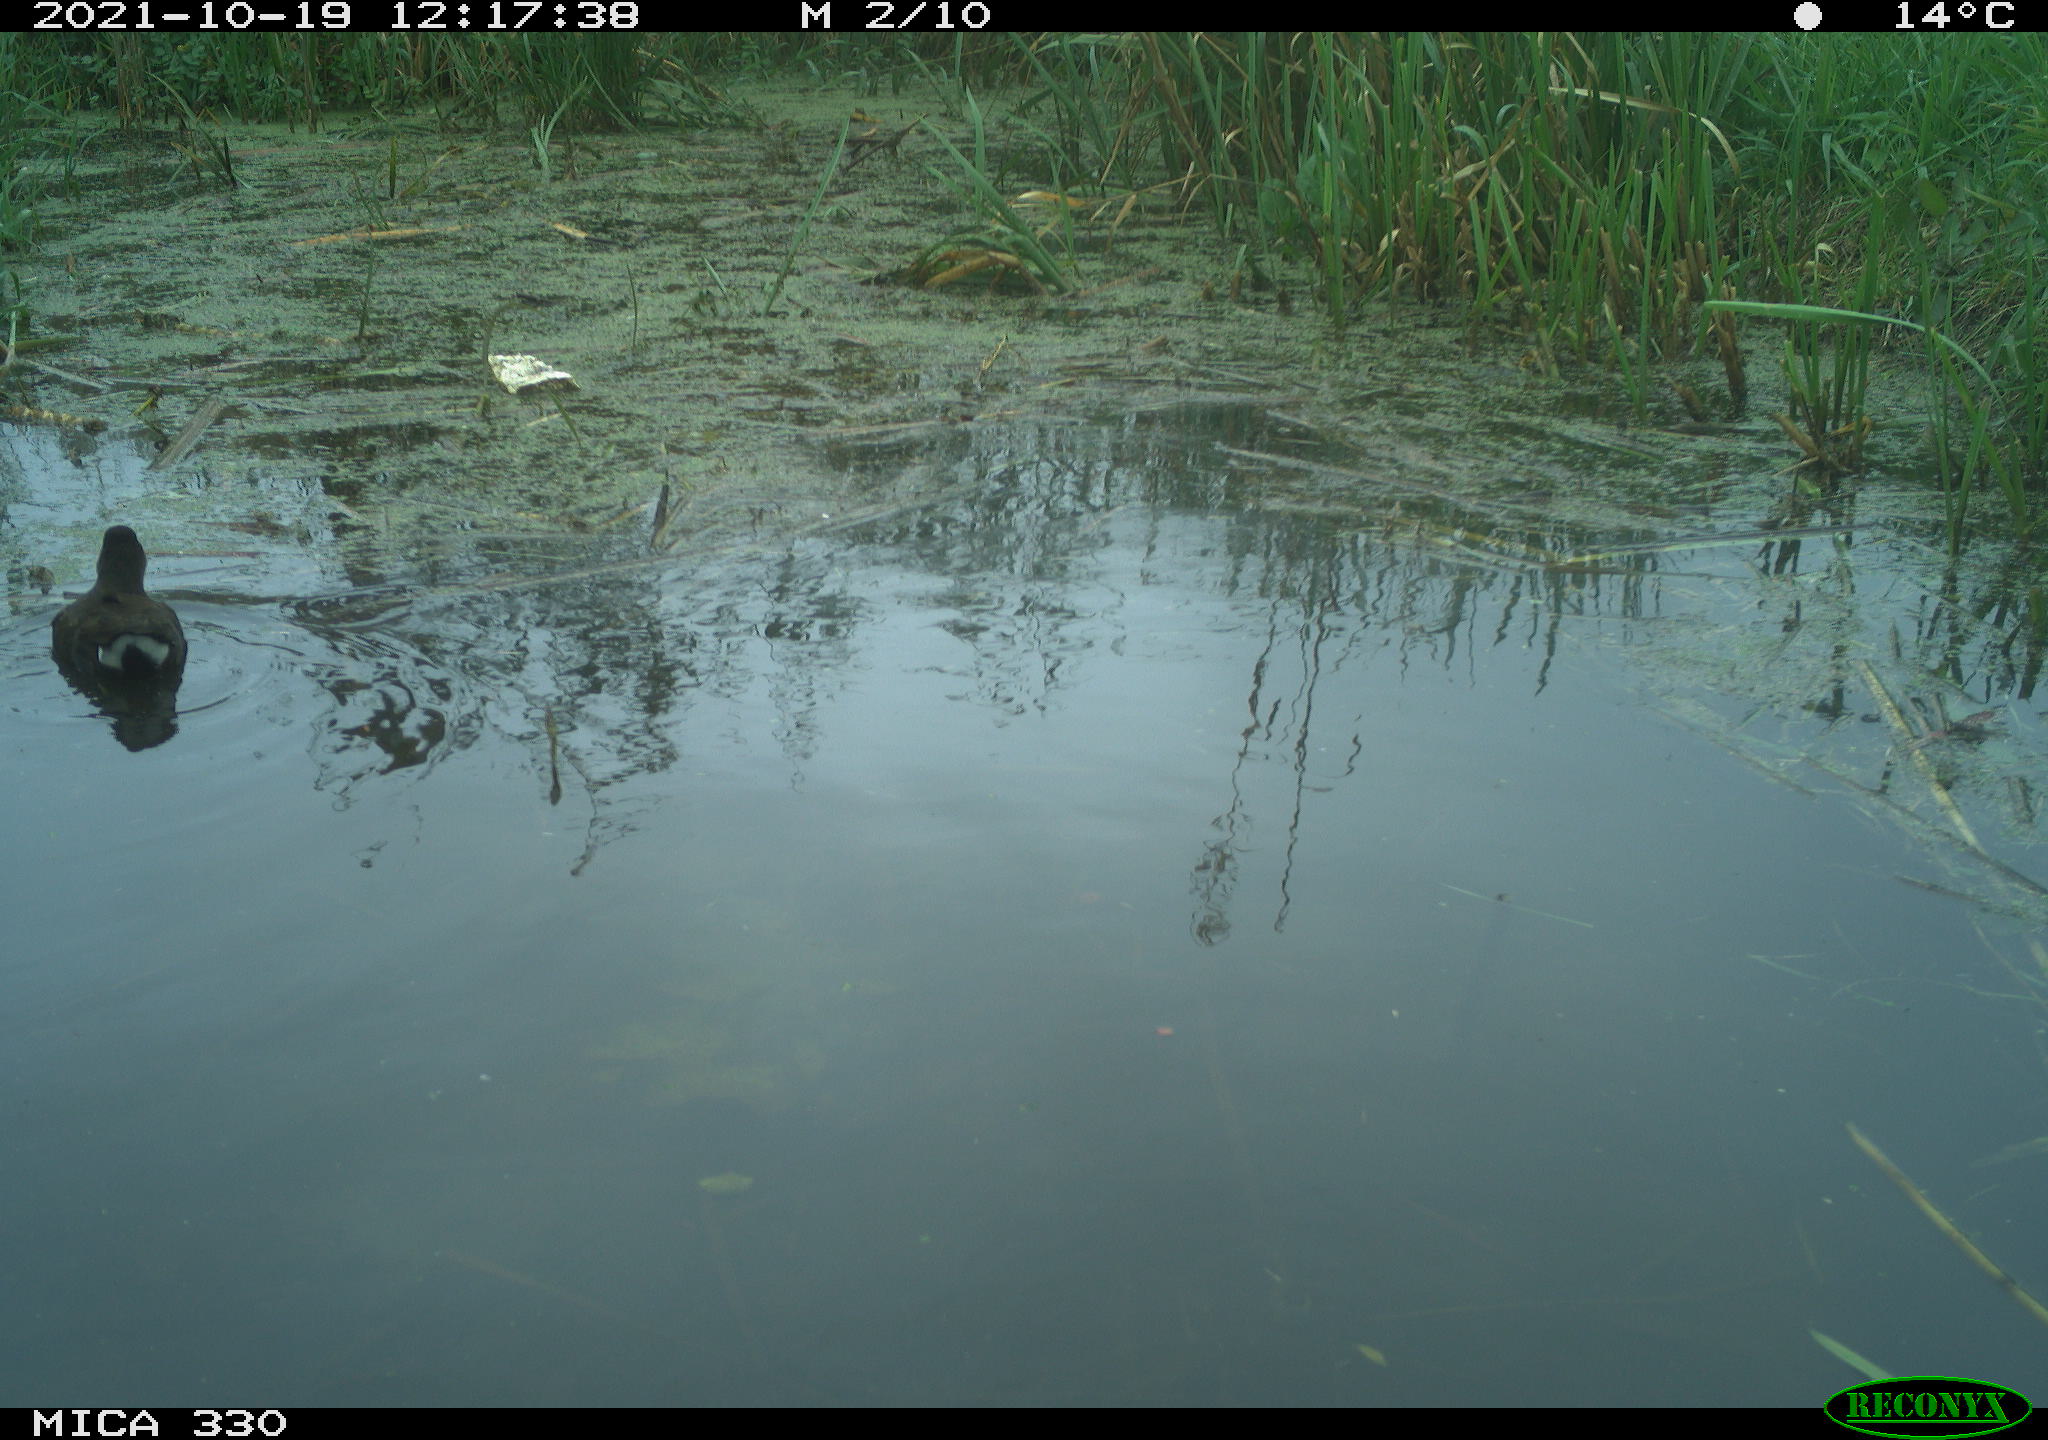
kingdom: Animalia
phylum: Chordata
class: Aves
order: Gruiformes
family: Rallidae
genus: Gallinula
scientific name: Gallinula chloropus
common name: Common moorhen
